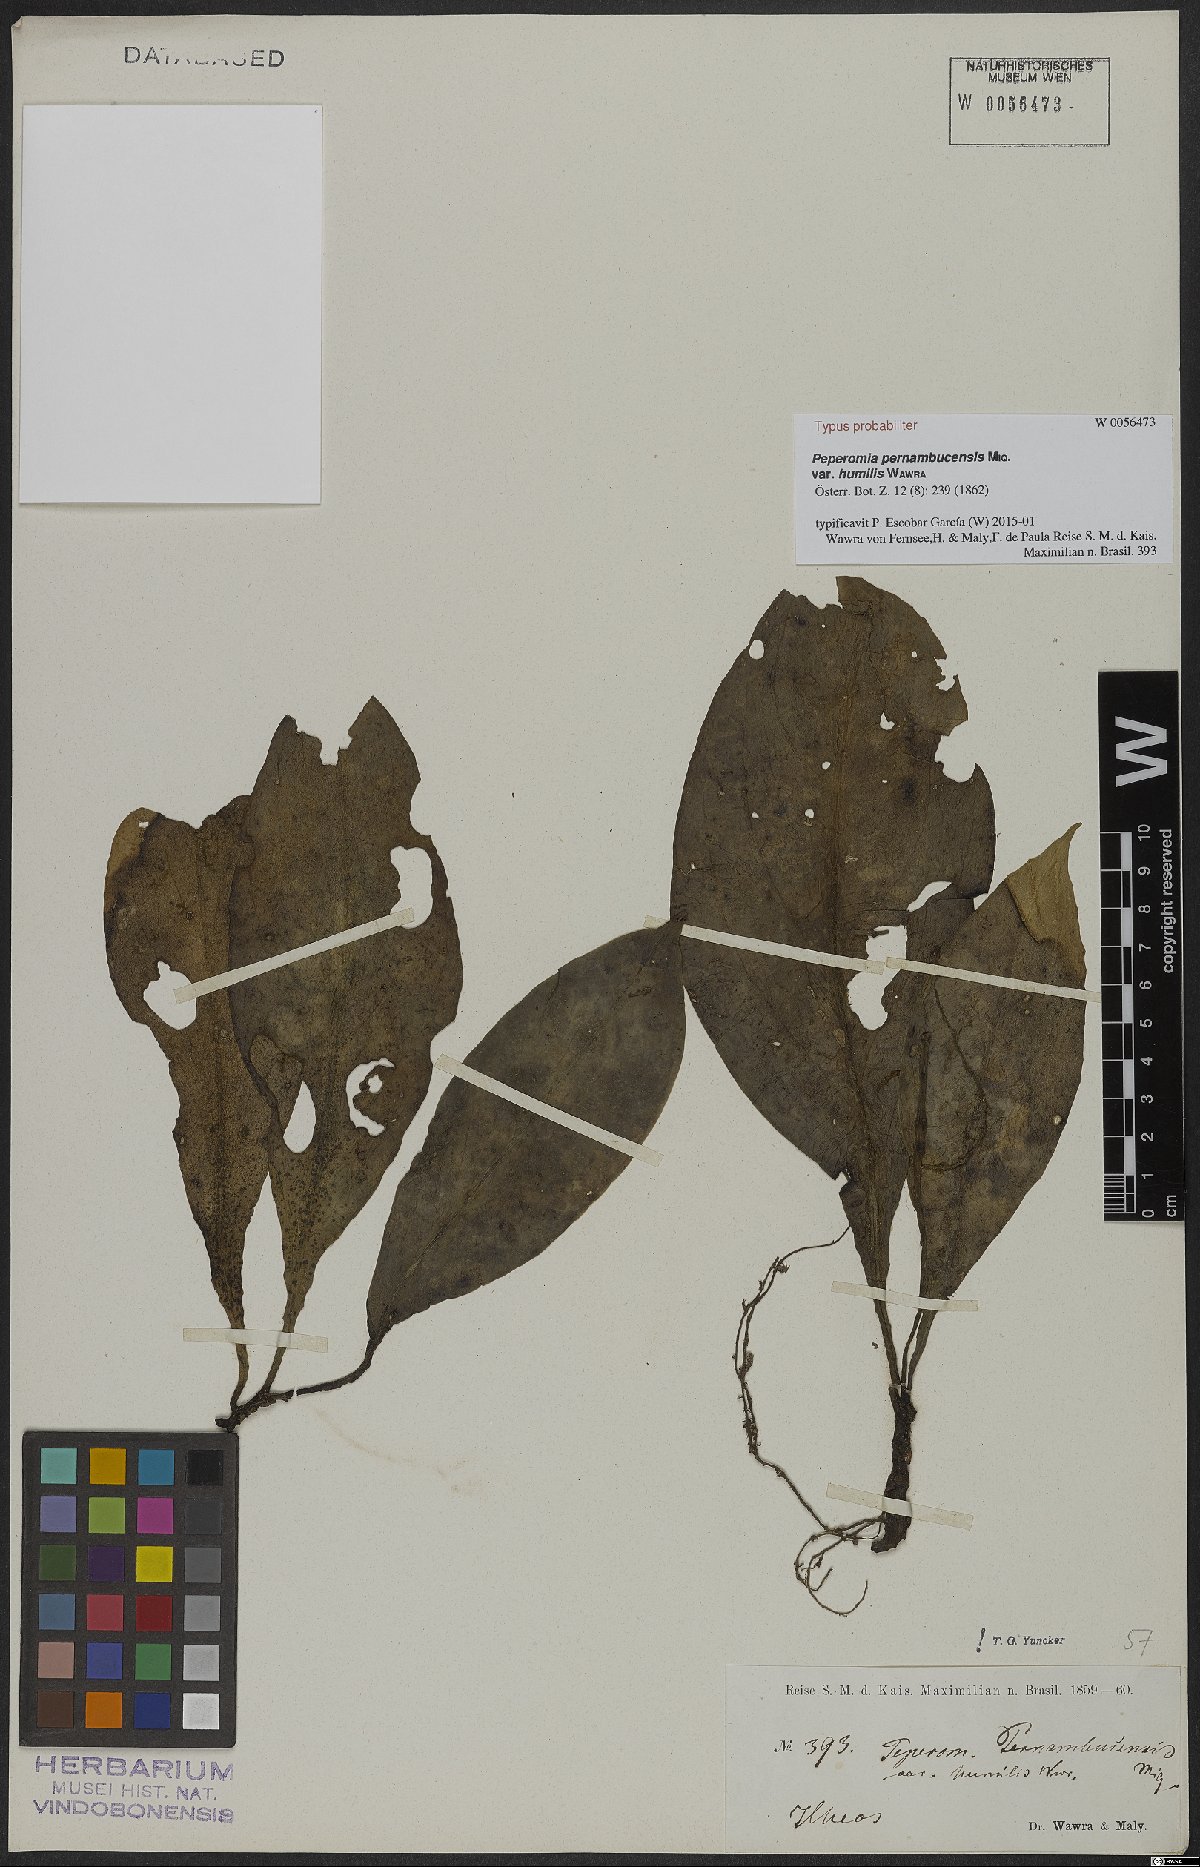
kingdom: Plantae
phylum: Tracheophyta
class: Magnoliopsida
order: Piperales
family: Piperaceae
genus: Peperomia
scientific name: Peperomia pernambucensis
